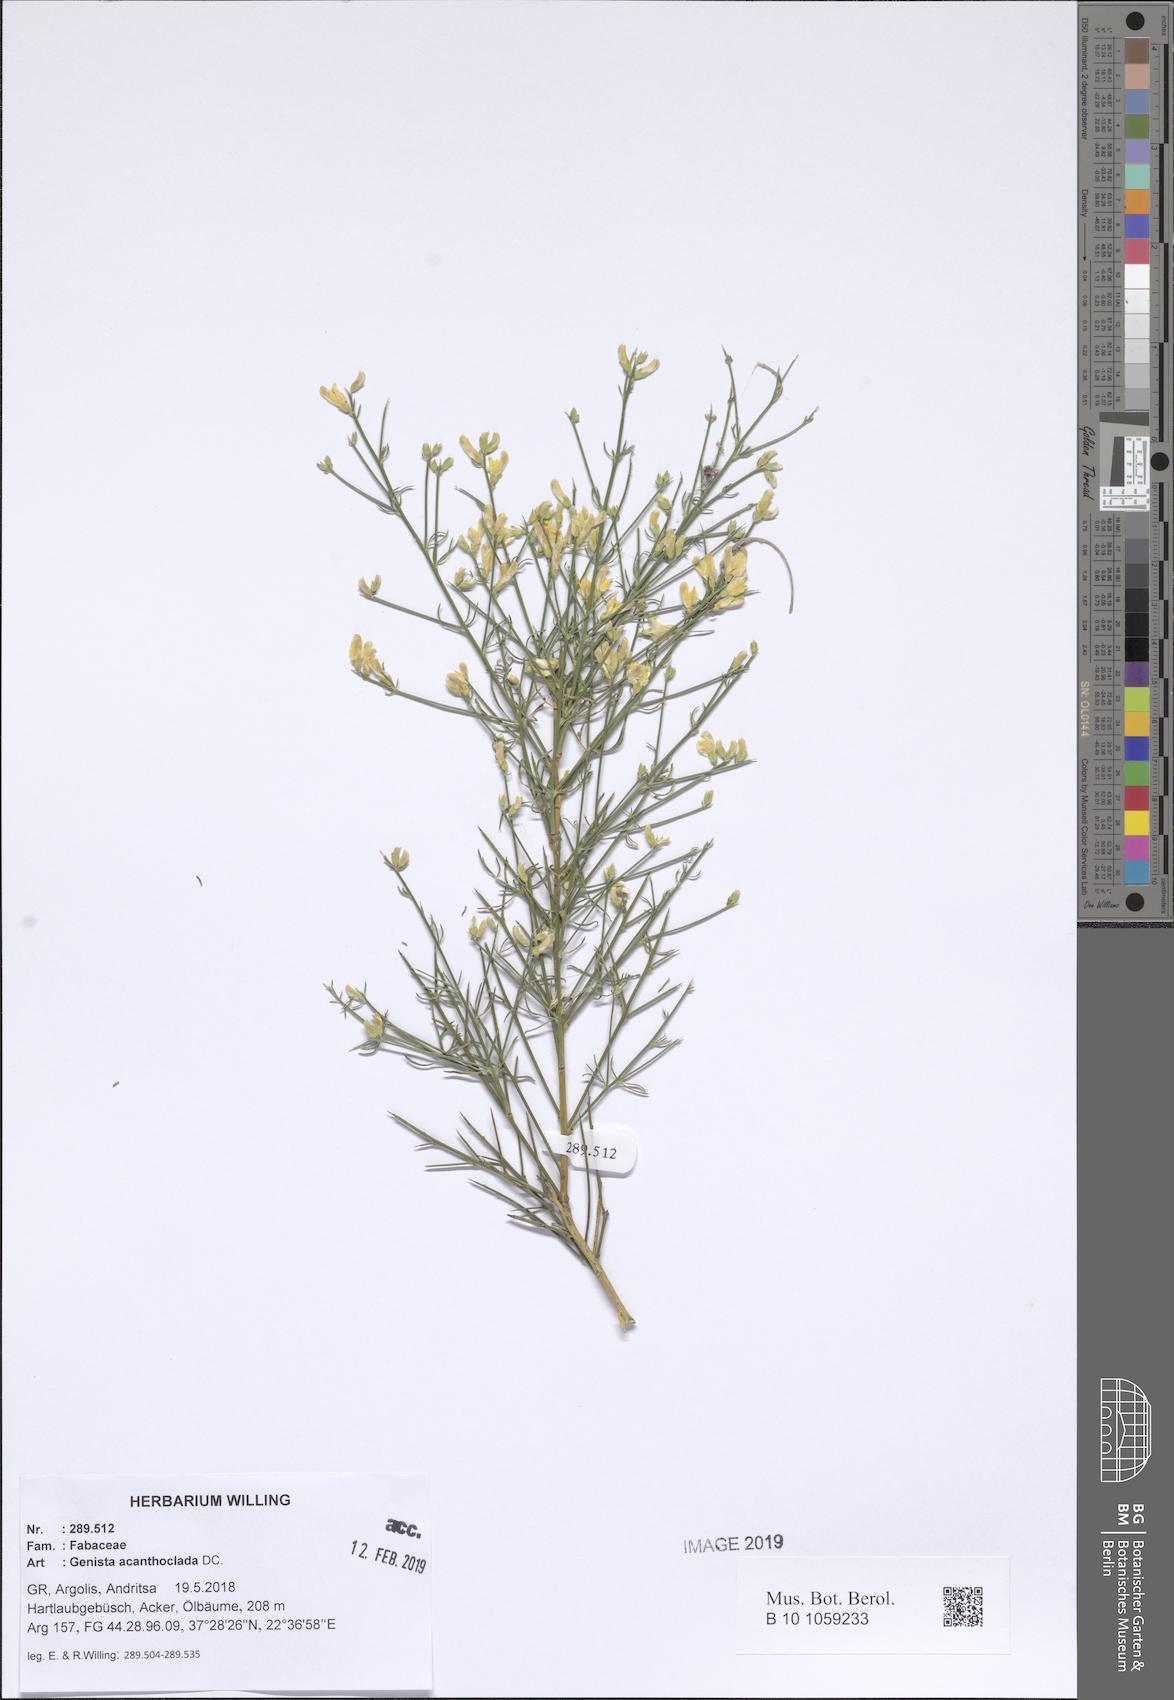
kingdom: Plantae
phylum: Tracheophyta
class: Magnoliopsida
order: Fabales
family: Fabaceae
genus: Genista
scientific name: Genista acanthoclada
